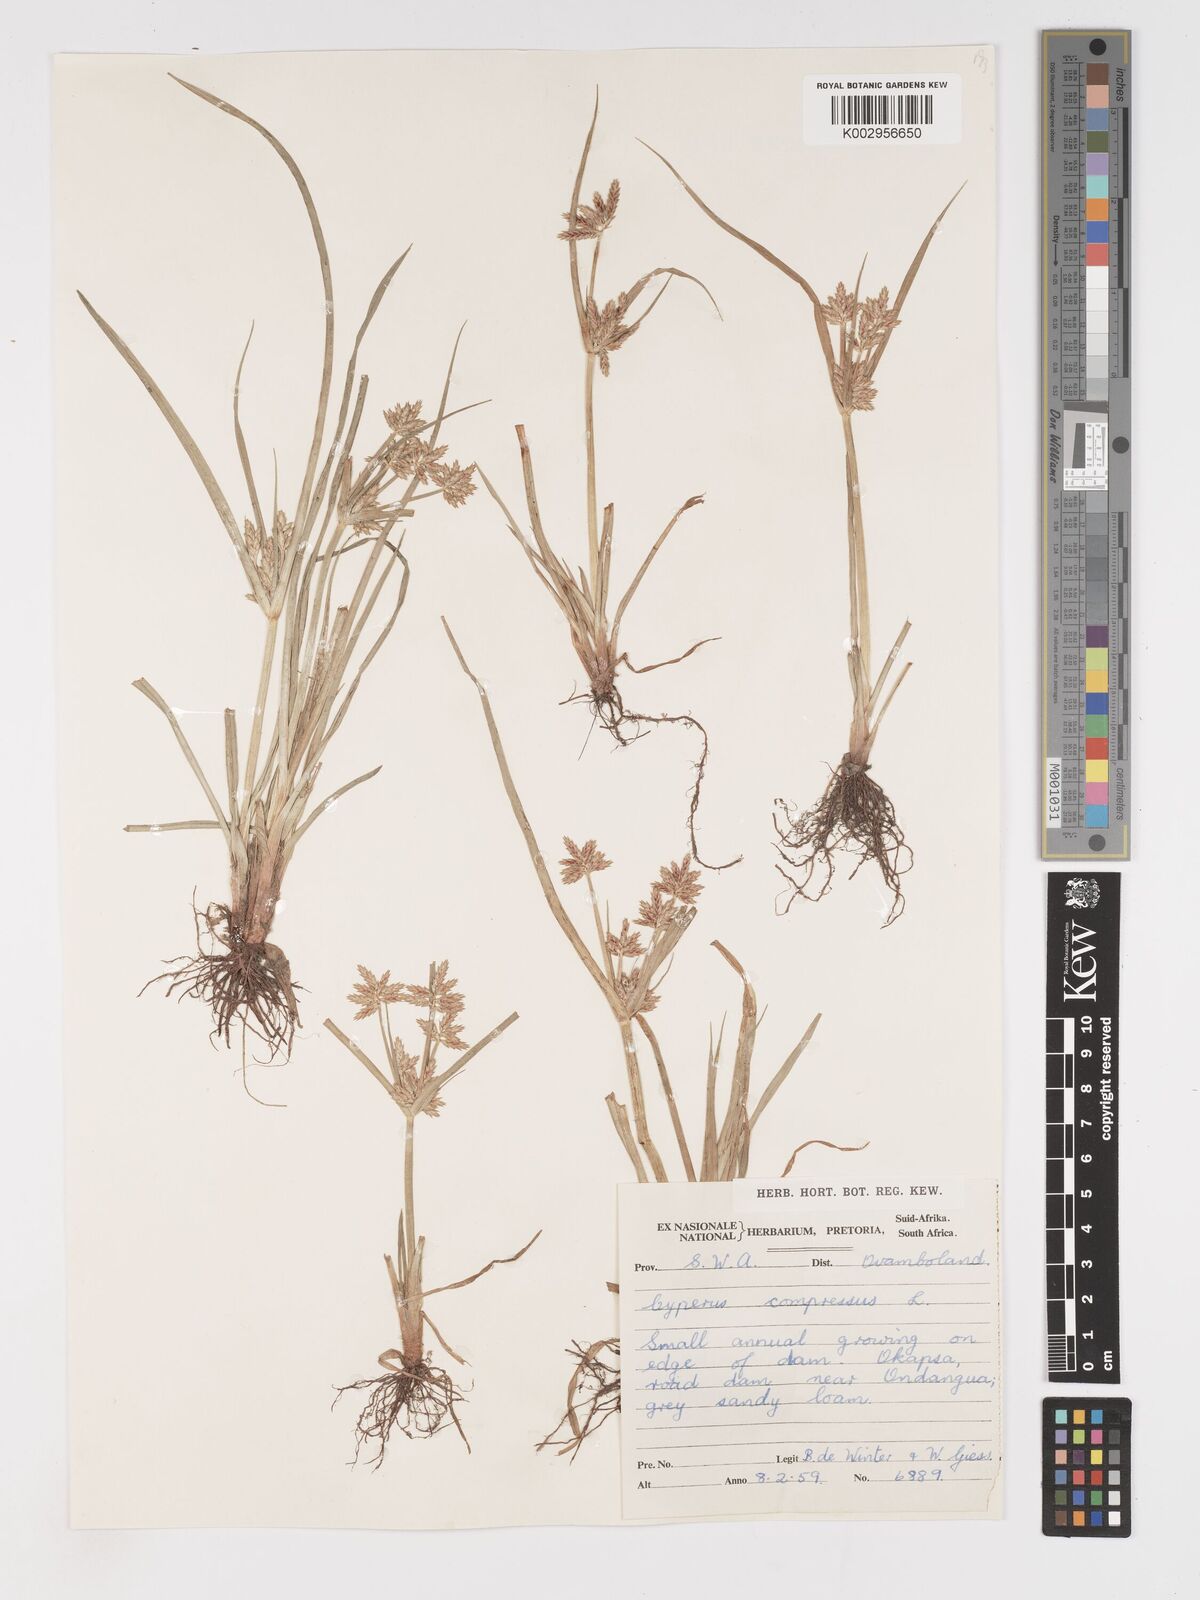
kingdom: Plantae
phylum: Tracheophyta
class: Liliopsida
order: Poales
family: Cyperaceae
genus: Cyperus
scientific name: Cyperus compressus
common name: Poorland flatsedge
